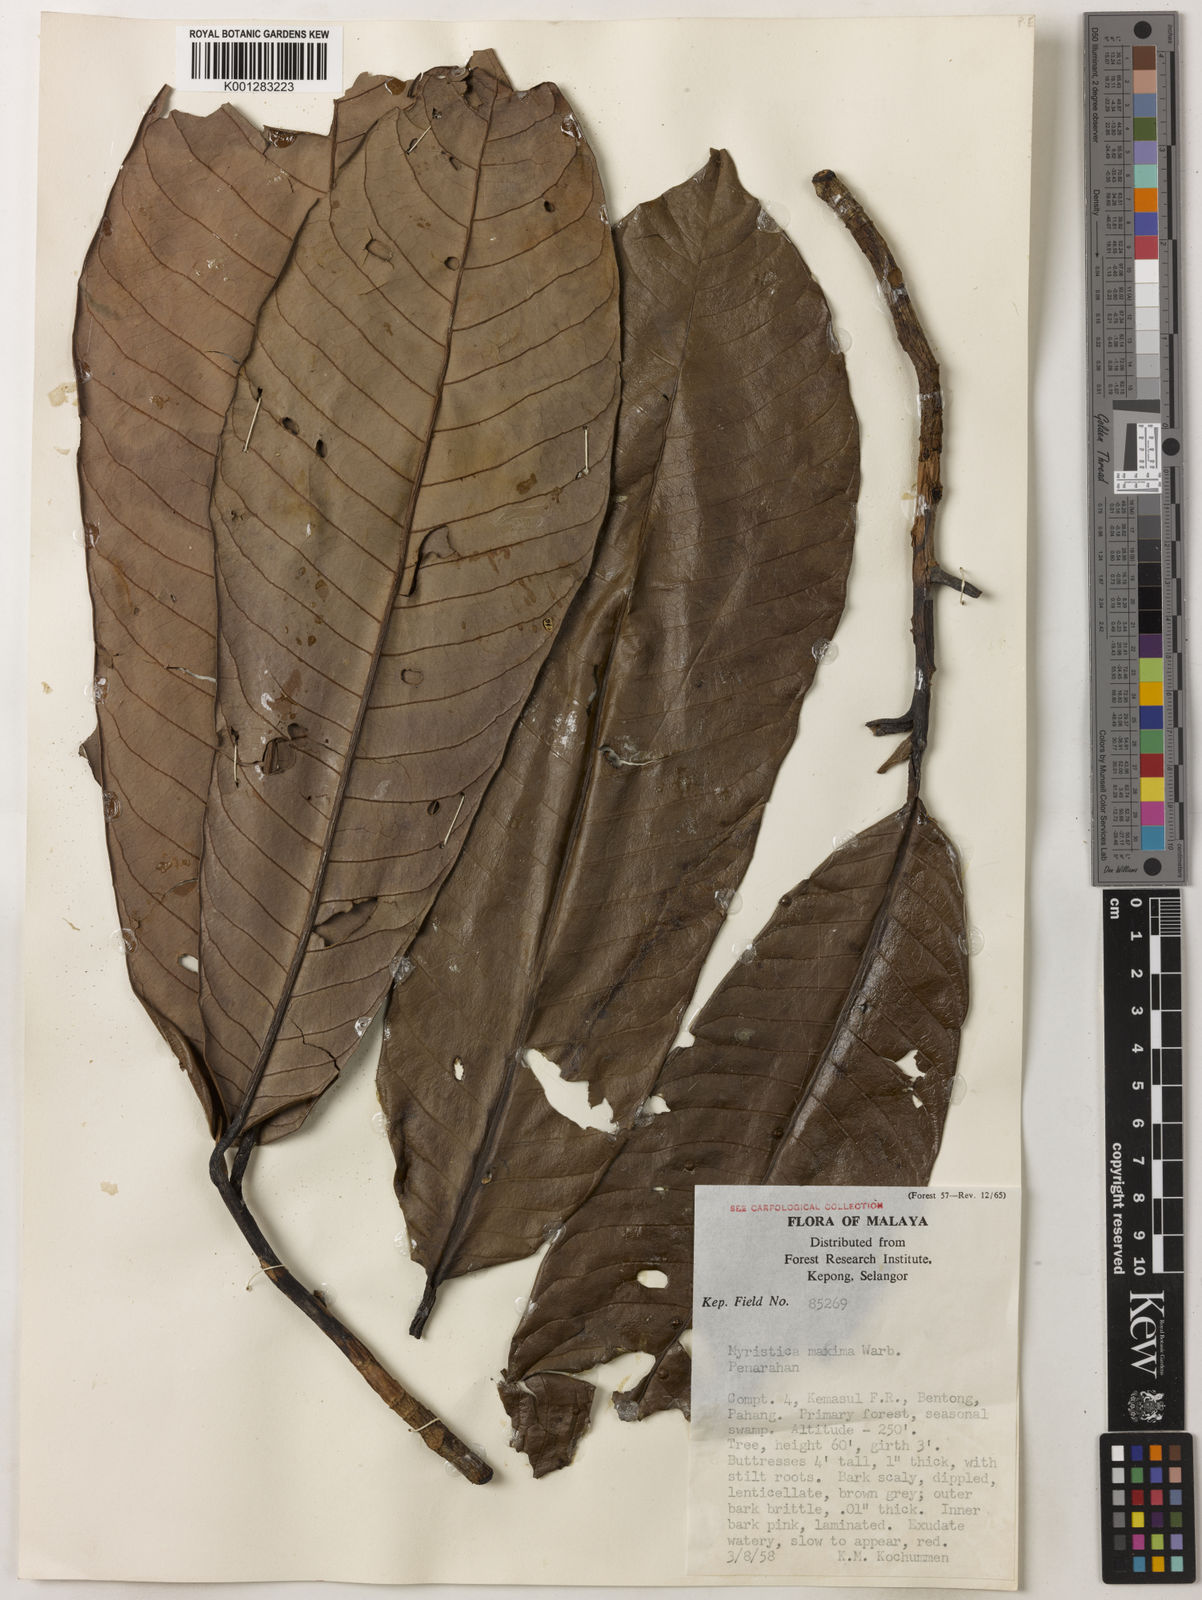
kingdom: Plantae
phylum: Tracheophyta
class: Magnoliopsida
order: Magnoliales
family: Myristicaceae
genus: Myristica
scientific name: Myristica maxima
